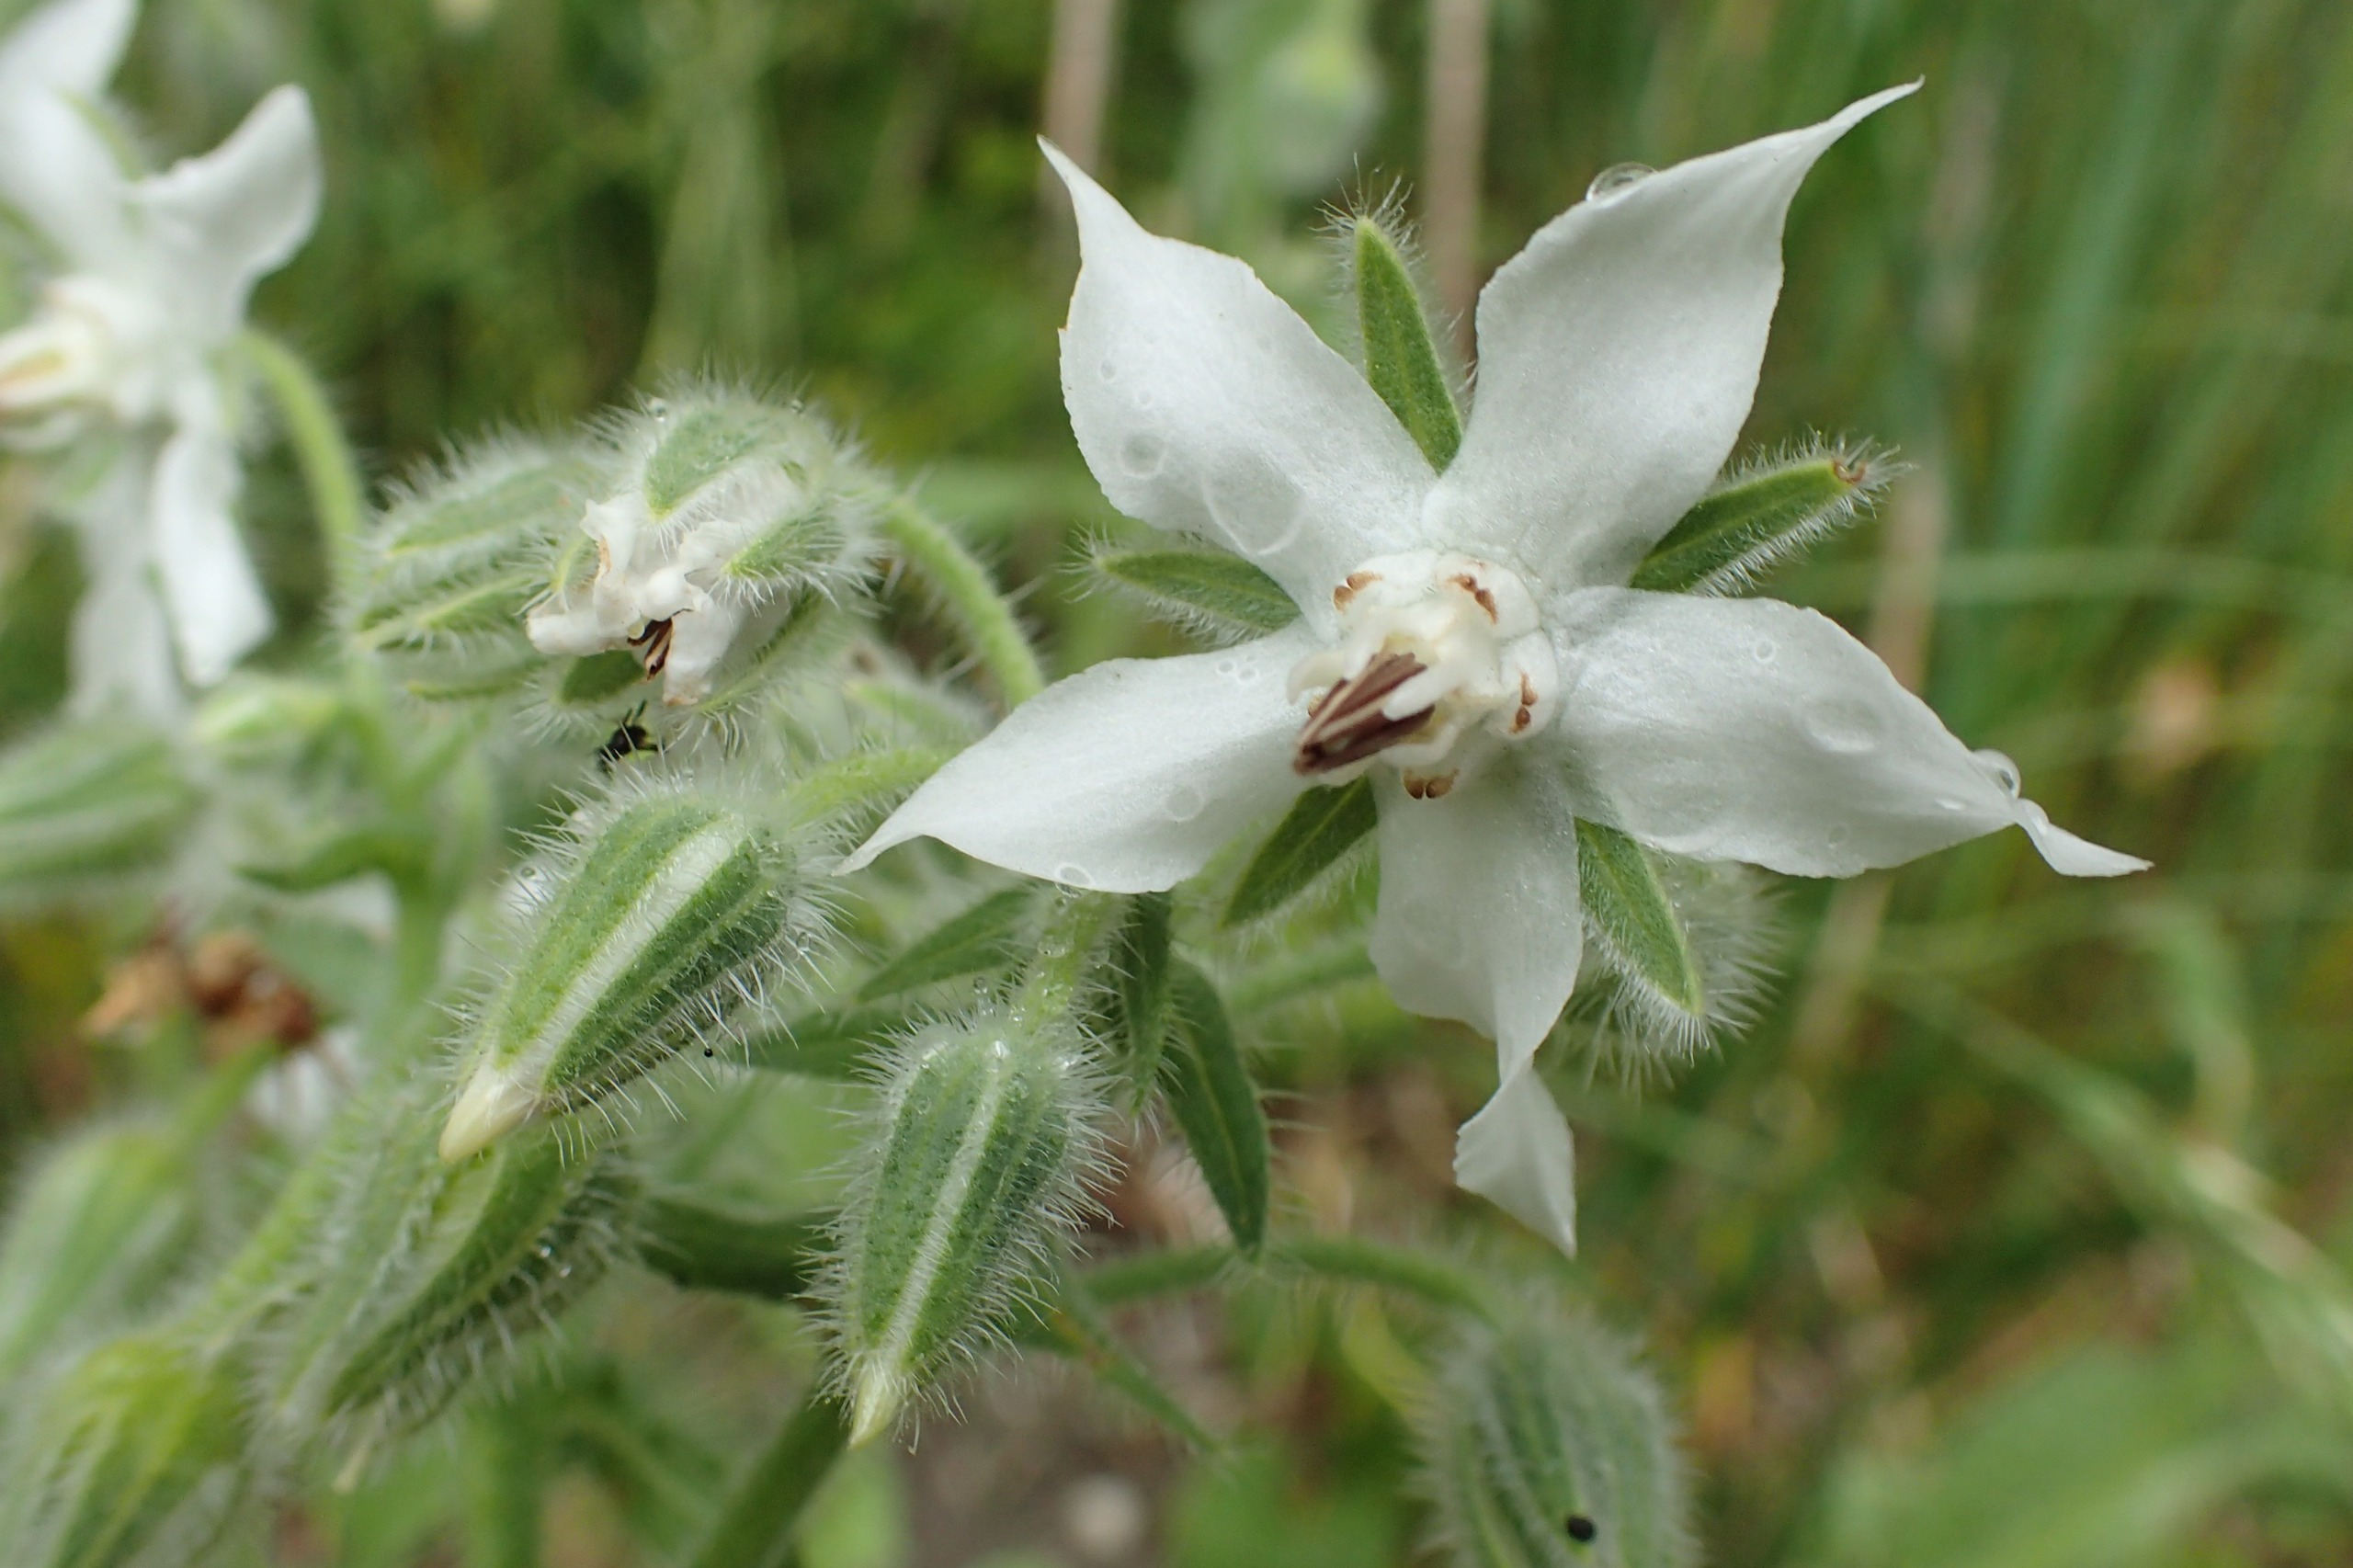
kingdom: Plantae
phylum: Tracheophyta
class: Magnoliopsida
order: Boraginales
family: Boraginaceae
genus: Borago
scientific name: Borago officinalis
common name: Hjulkrone
